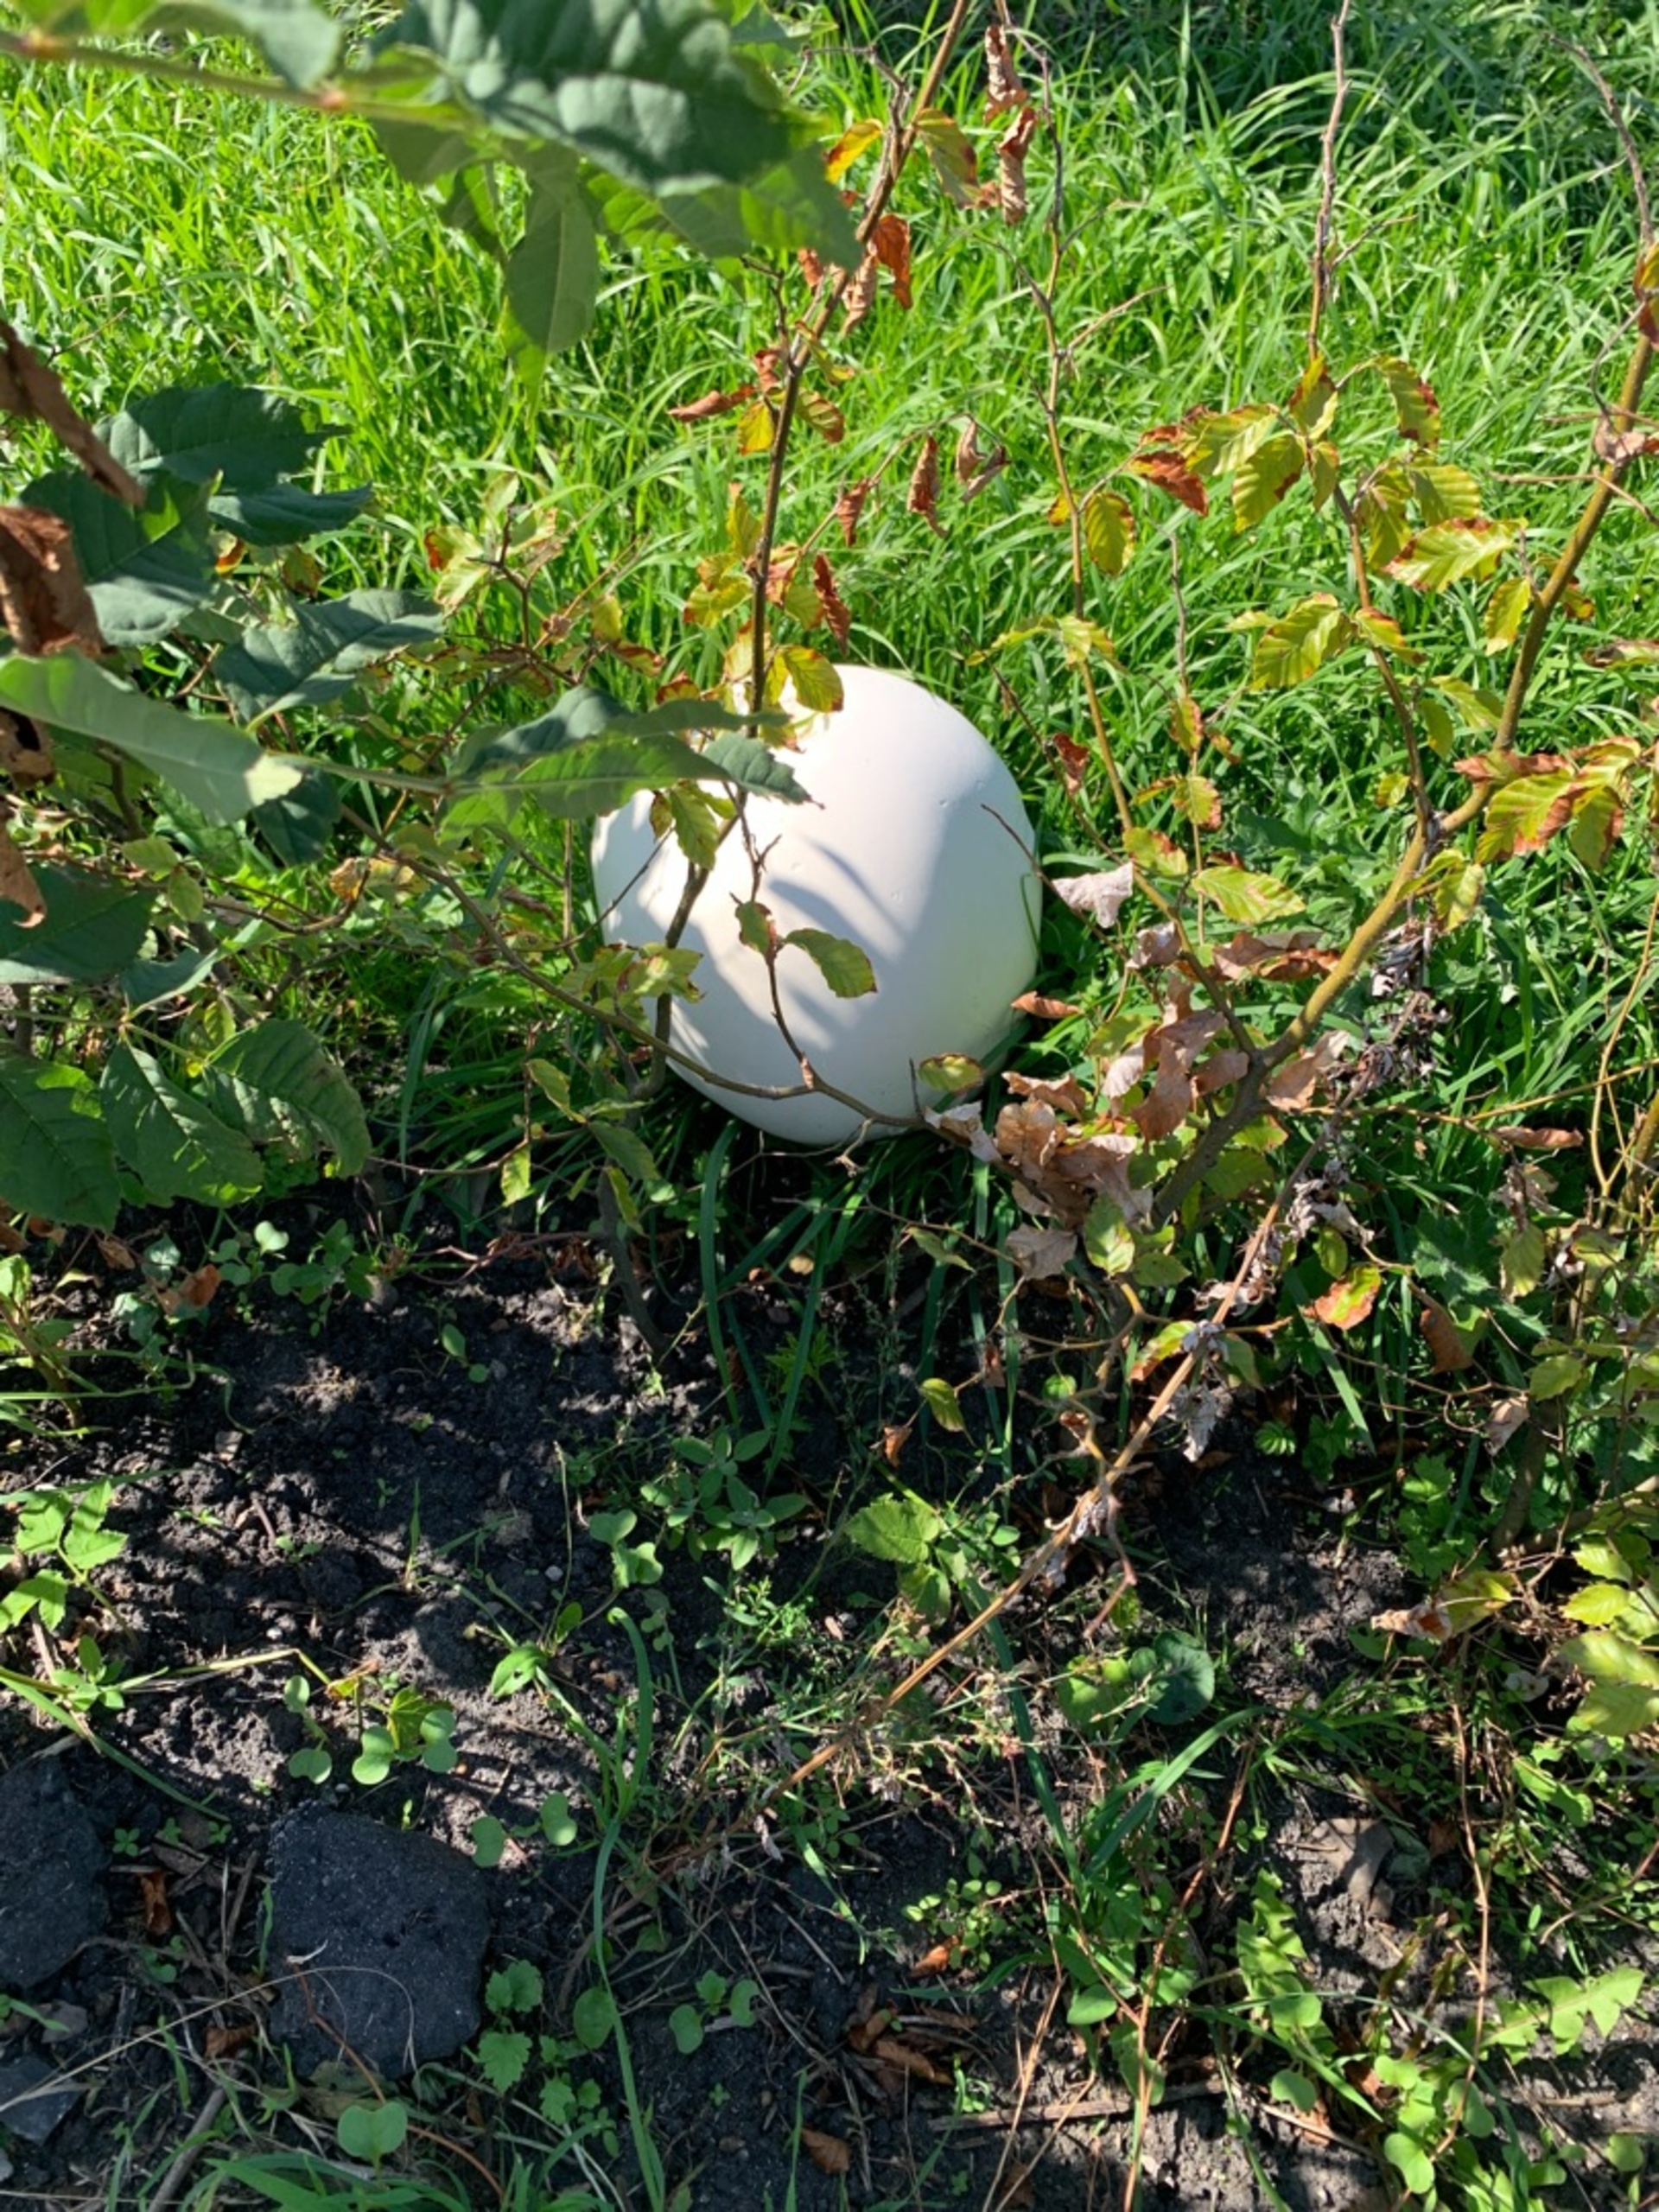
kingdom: Fungi
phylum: Basidiomycota
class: Agaricomycetes
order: Agaricales
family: Lycoperdaceae
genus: Calvatia
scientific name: Calvatia gigantea
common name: Kæmpestøvbold
